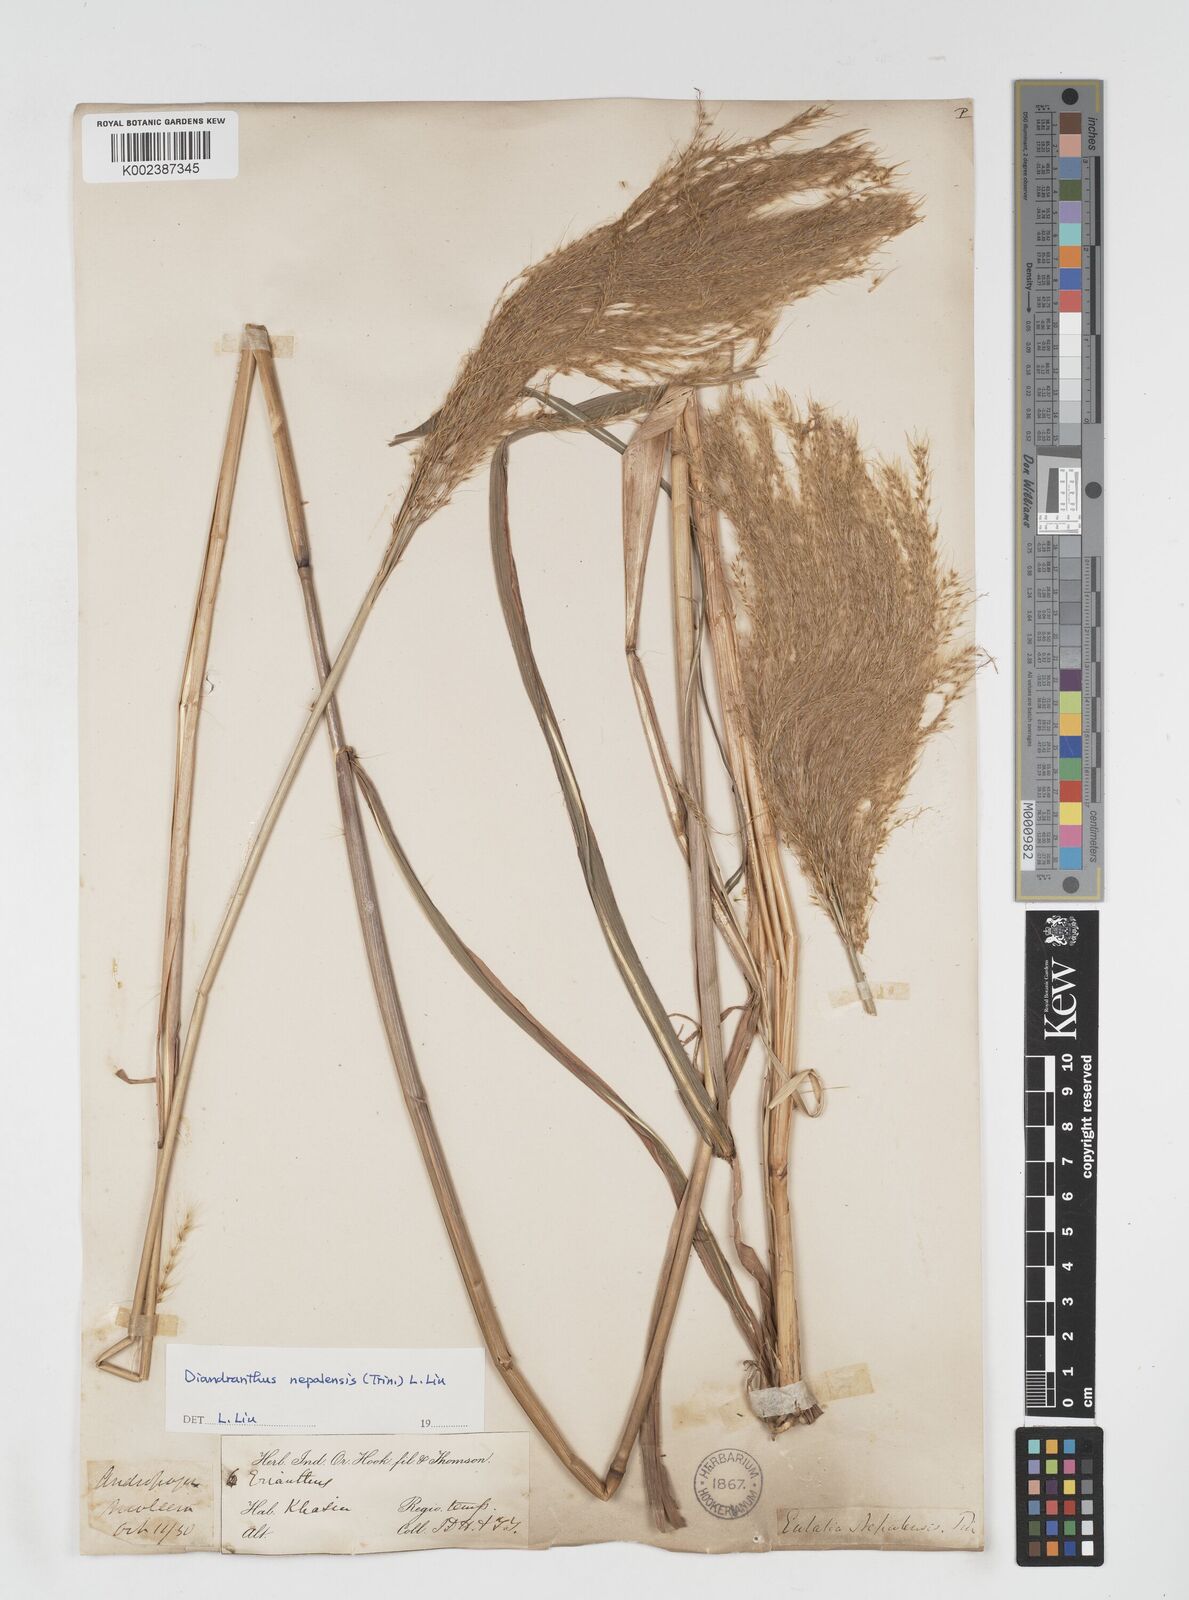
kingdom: Plantae
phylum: Tracheophyta
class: Liliopsida
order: Poales
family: Poaceae
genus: Miscanthus
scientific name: Miscanthus nepalensis
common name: Nepal silver grass
